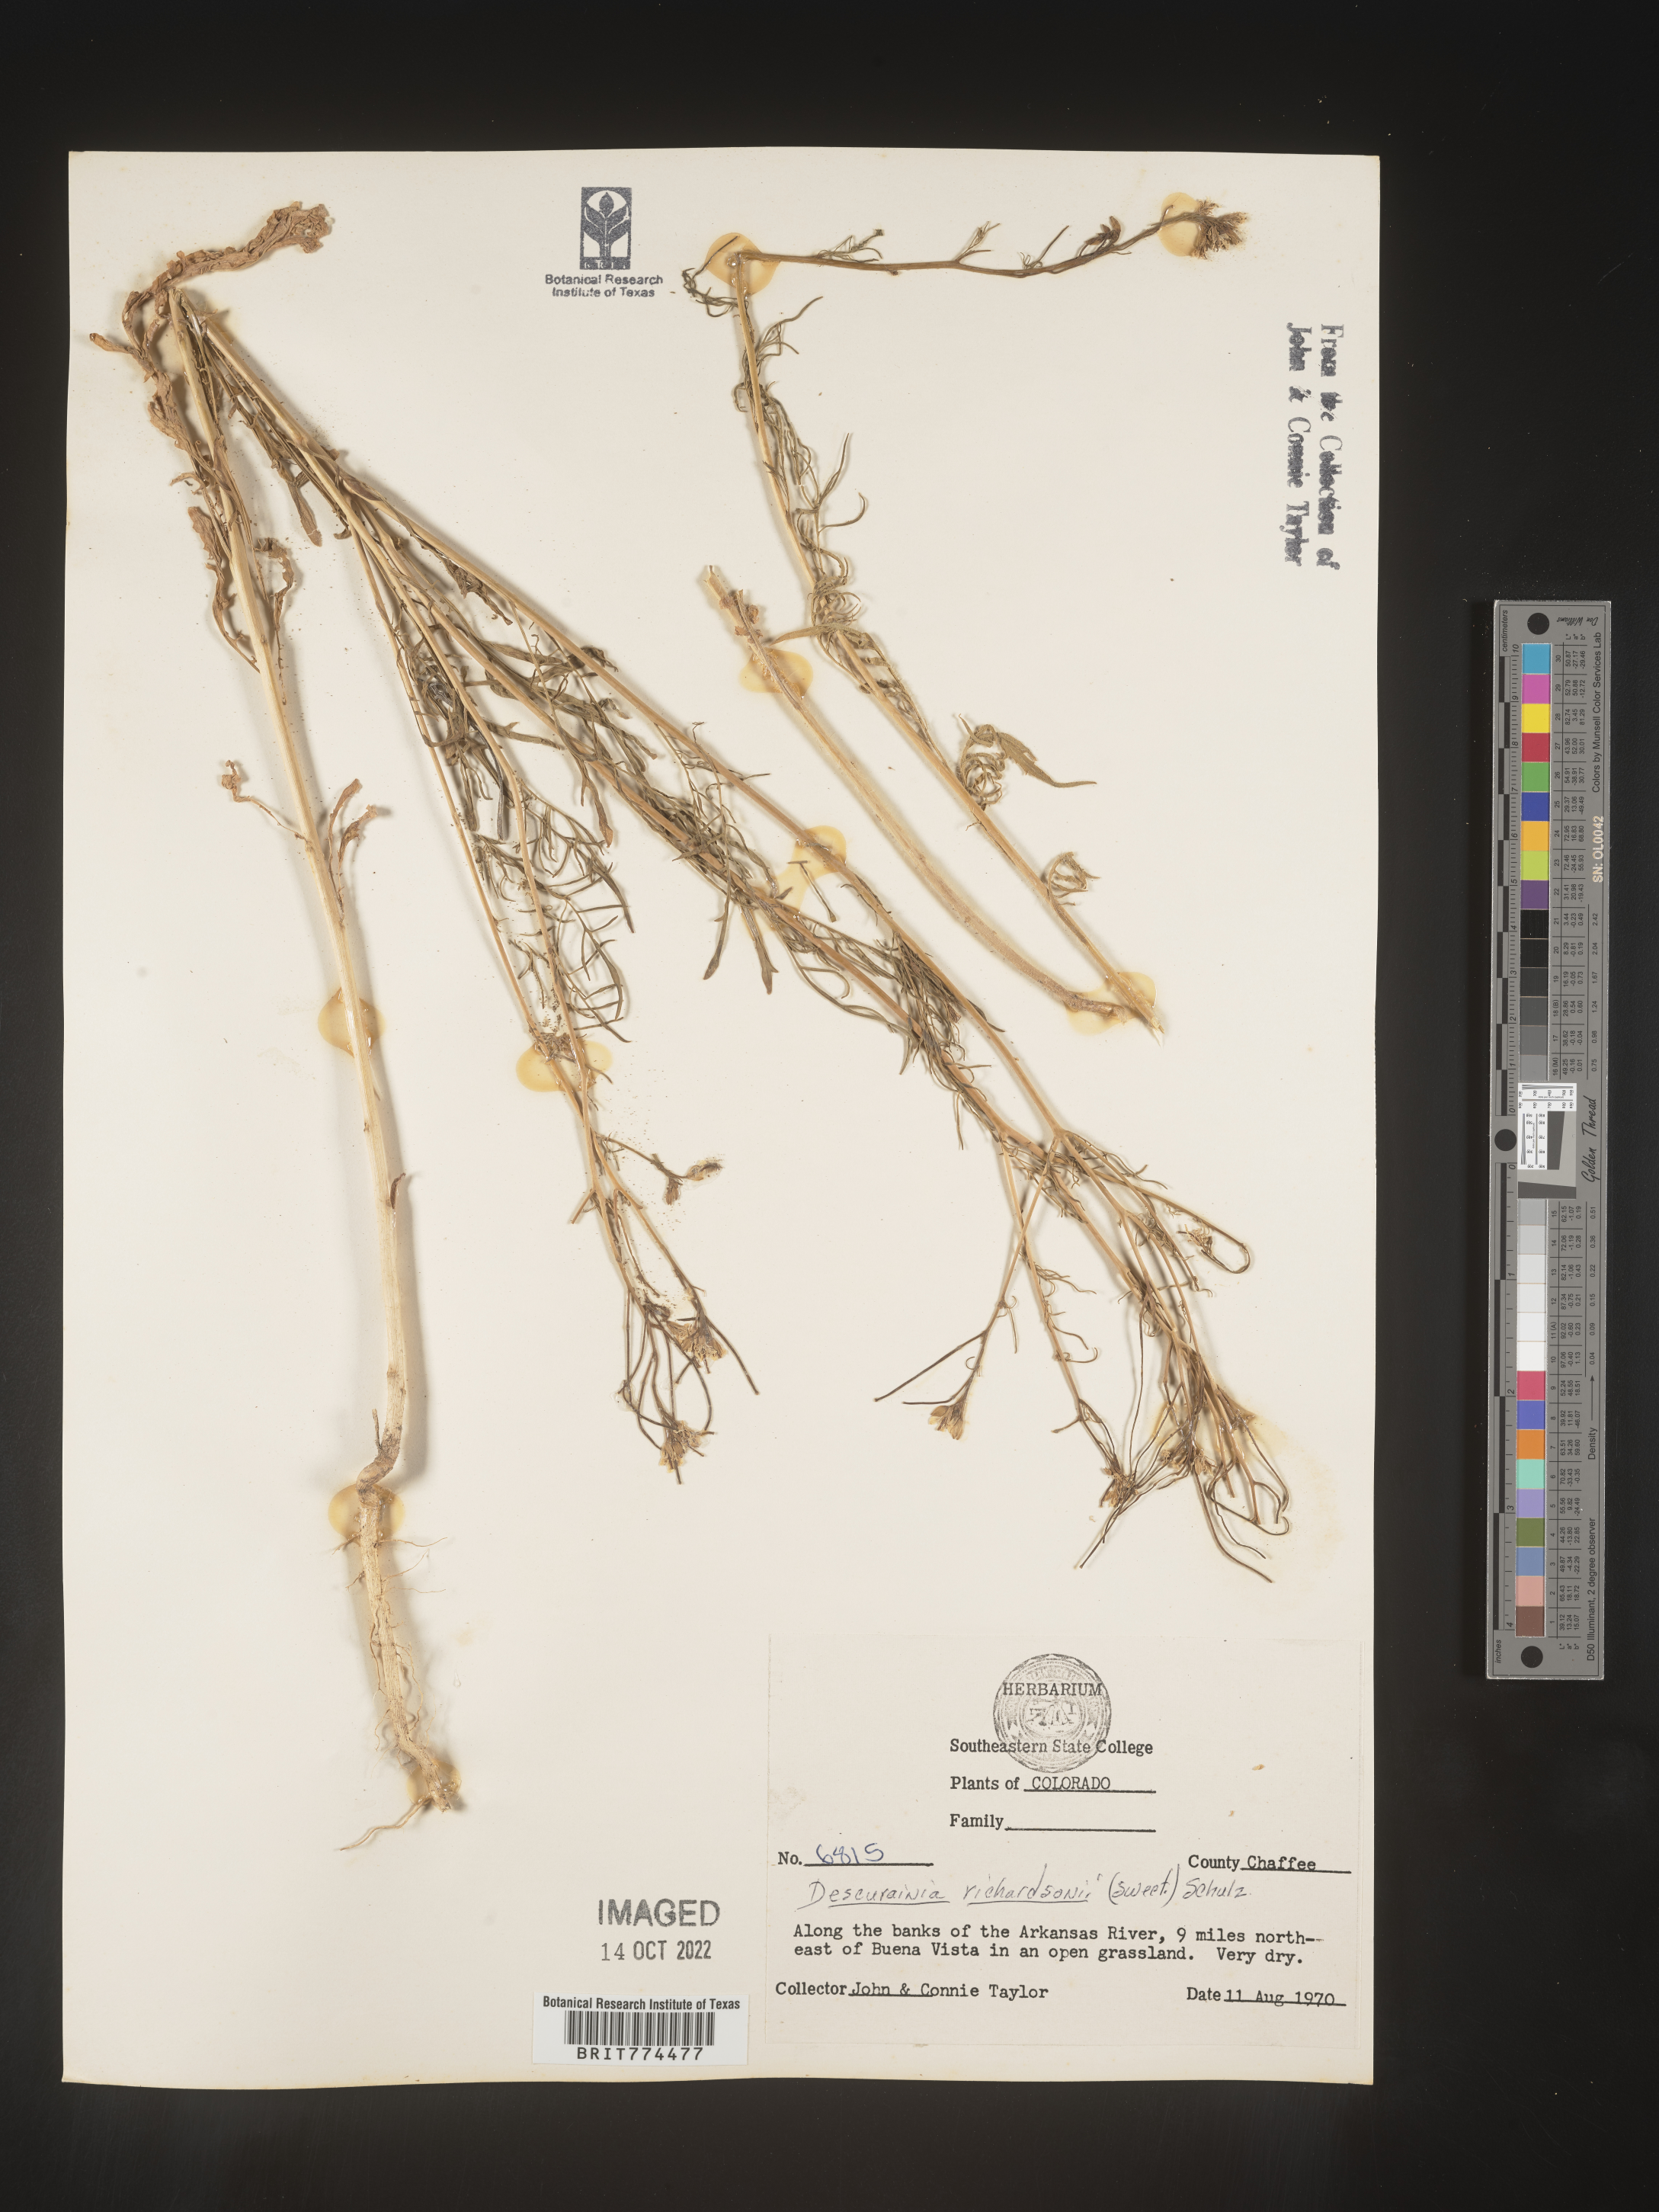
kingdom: Plantae
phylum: Tracheophyta
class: Magnoliopsida
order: Brassicales
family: Brassicaceae
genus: Descurainia
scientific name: Descurainia
